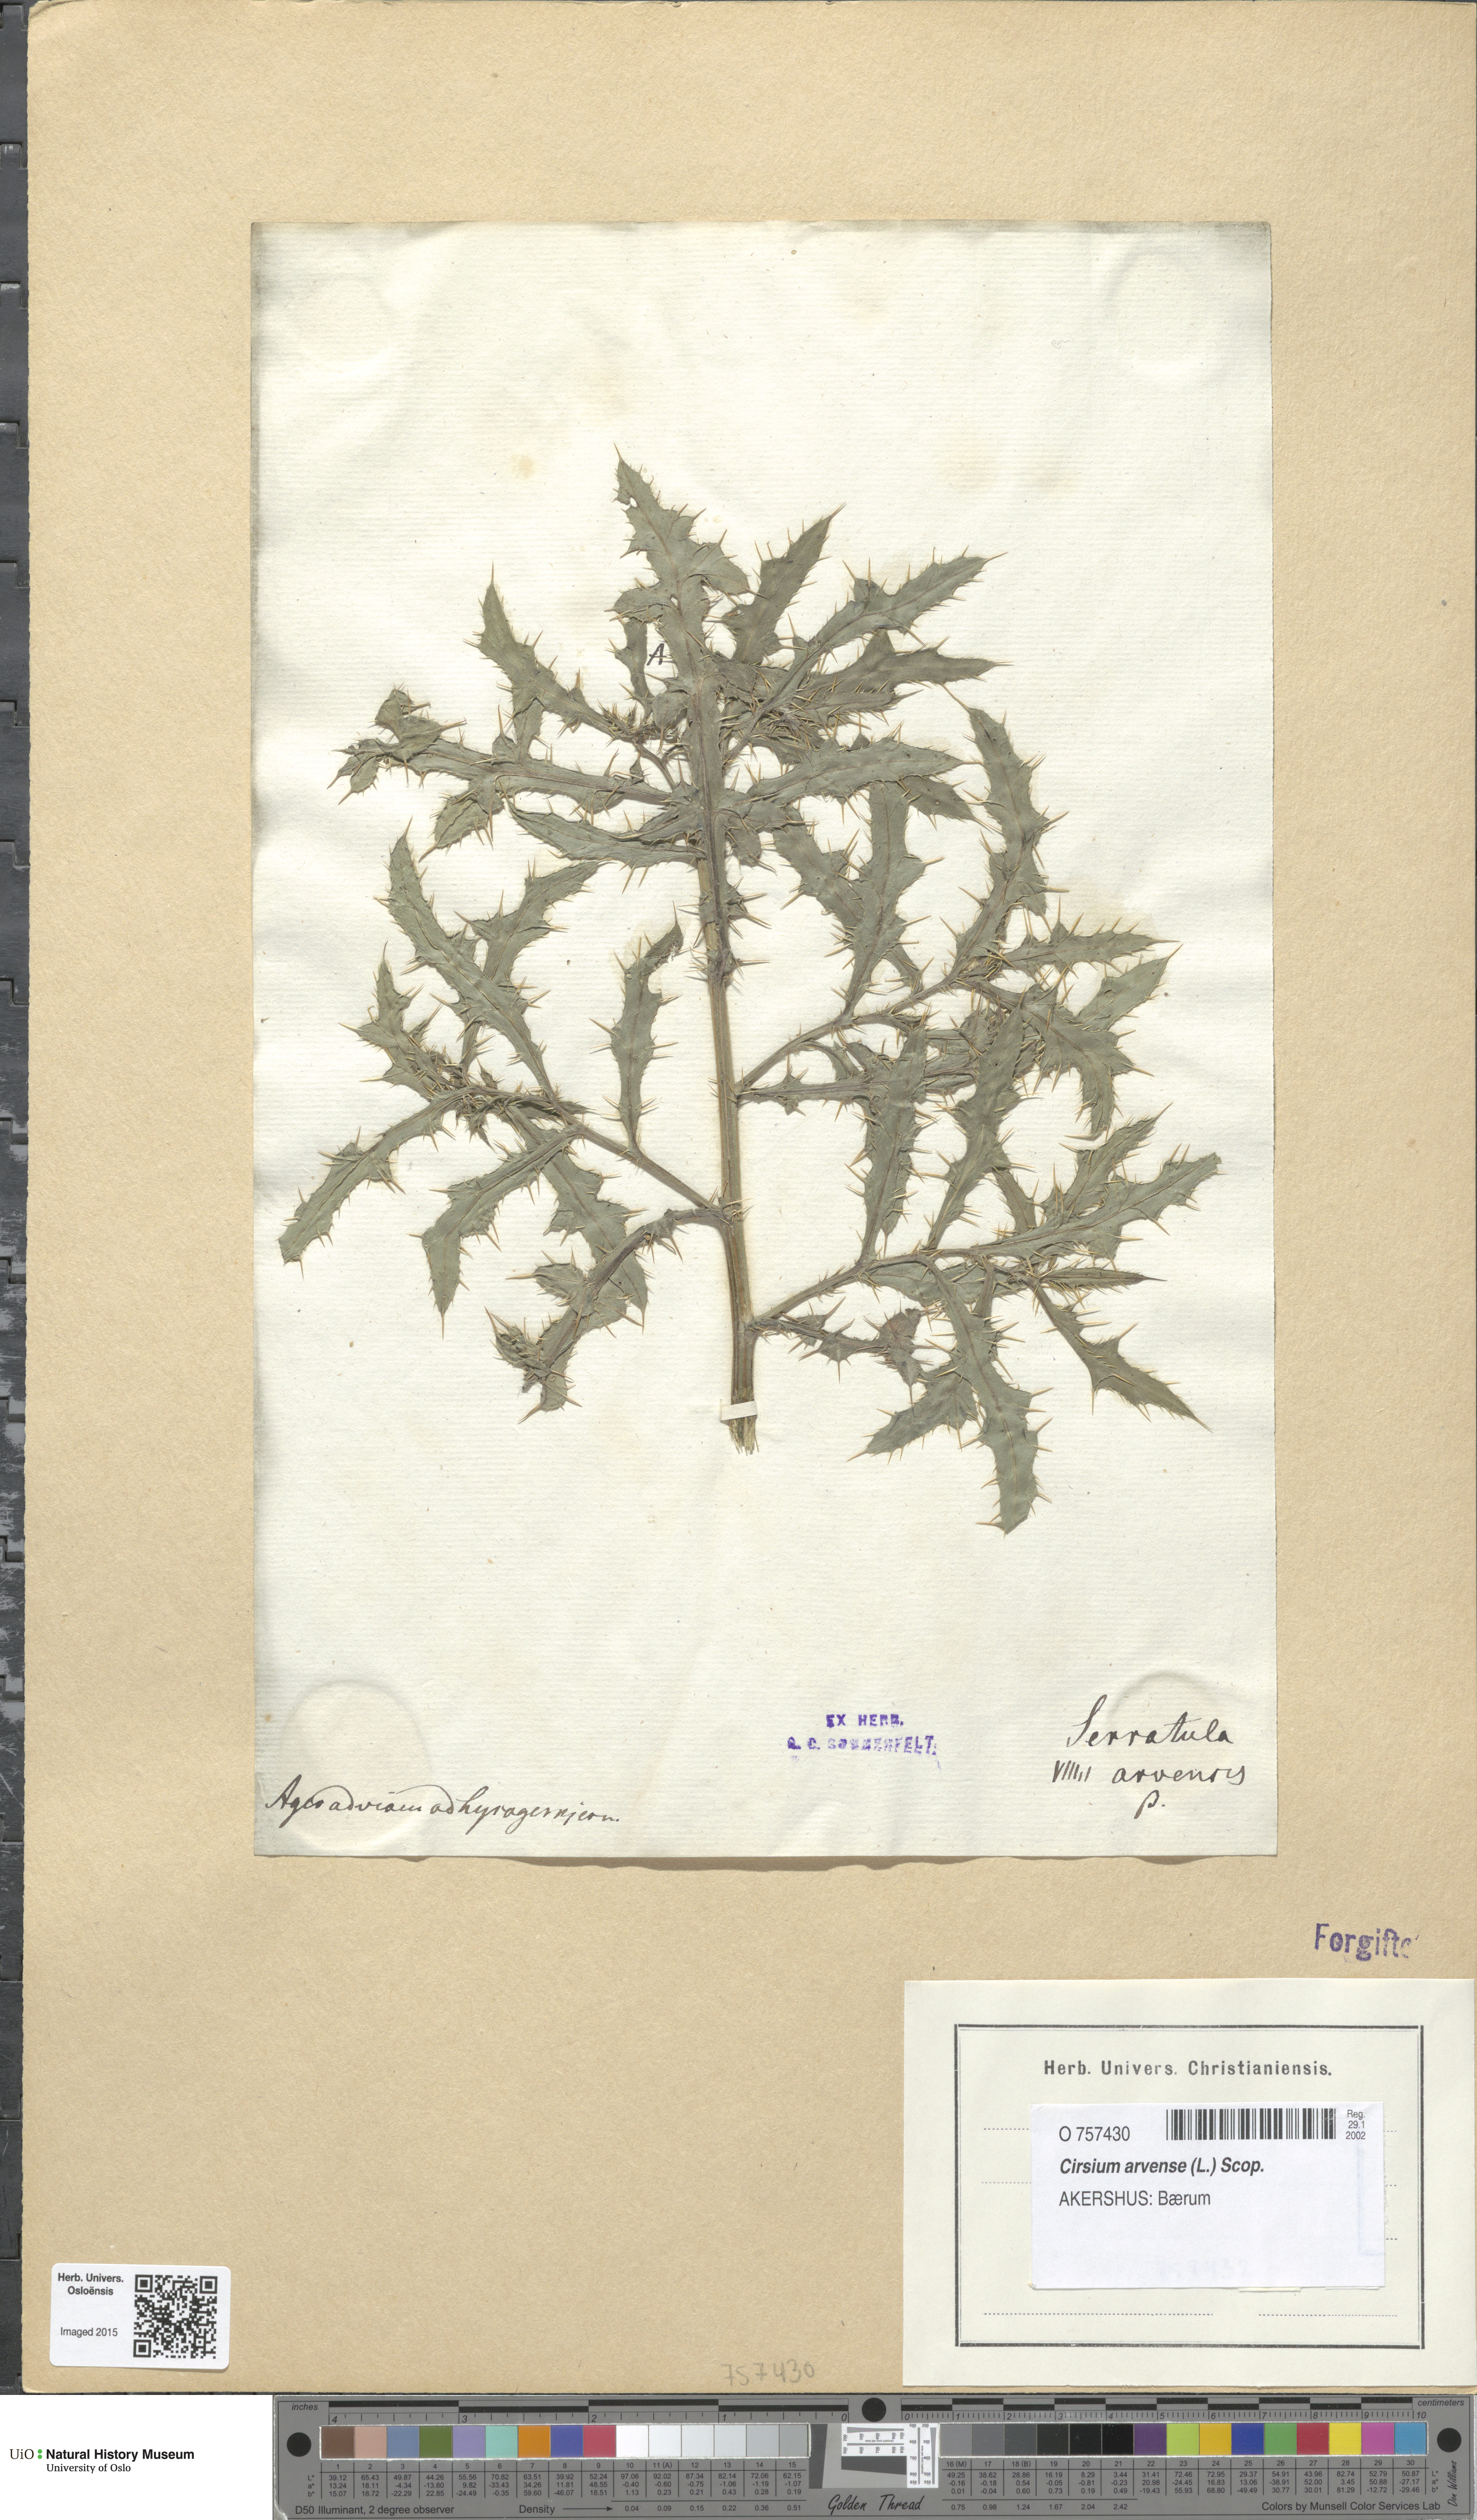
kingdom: Plantae
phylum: Tracheophyta
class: Magnoliopsida
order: Asterales
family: Asteraceae
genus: Cirsium
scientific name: Cirsium arvense
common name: Creeping thistle
